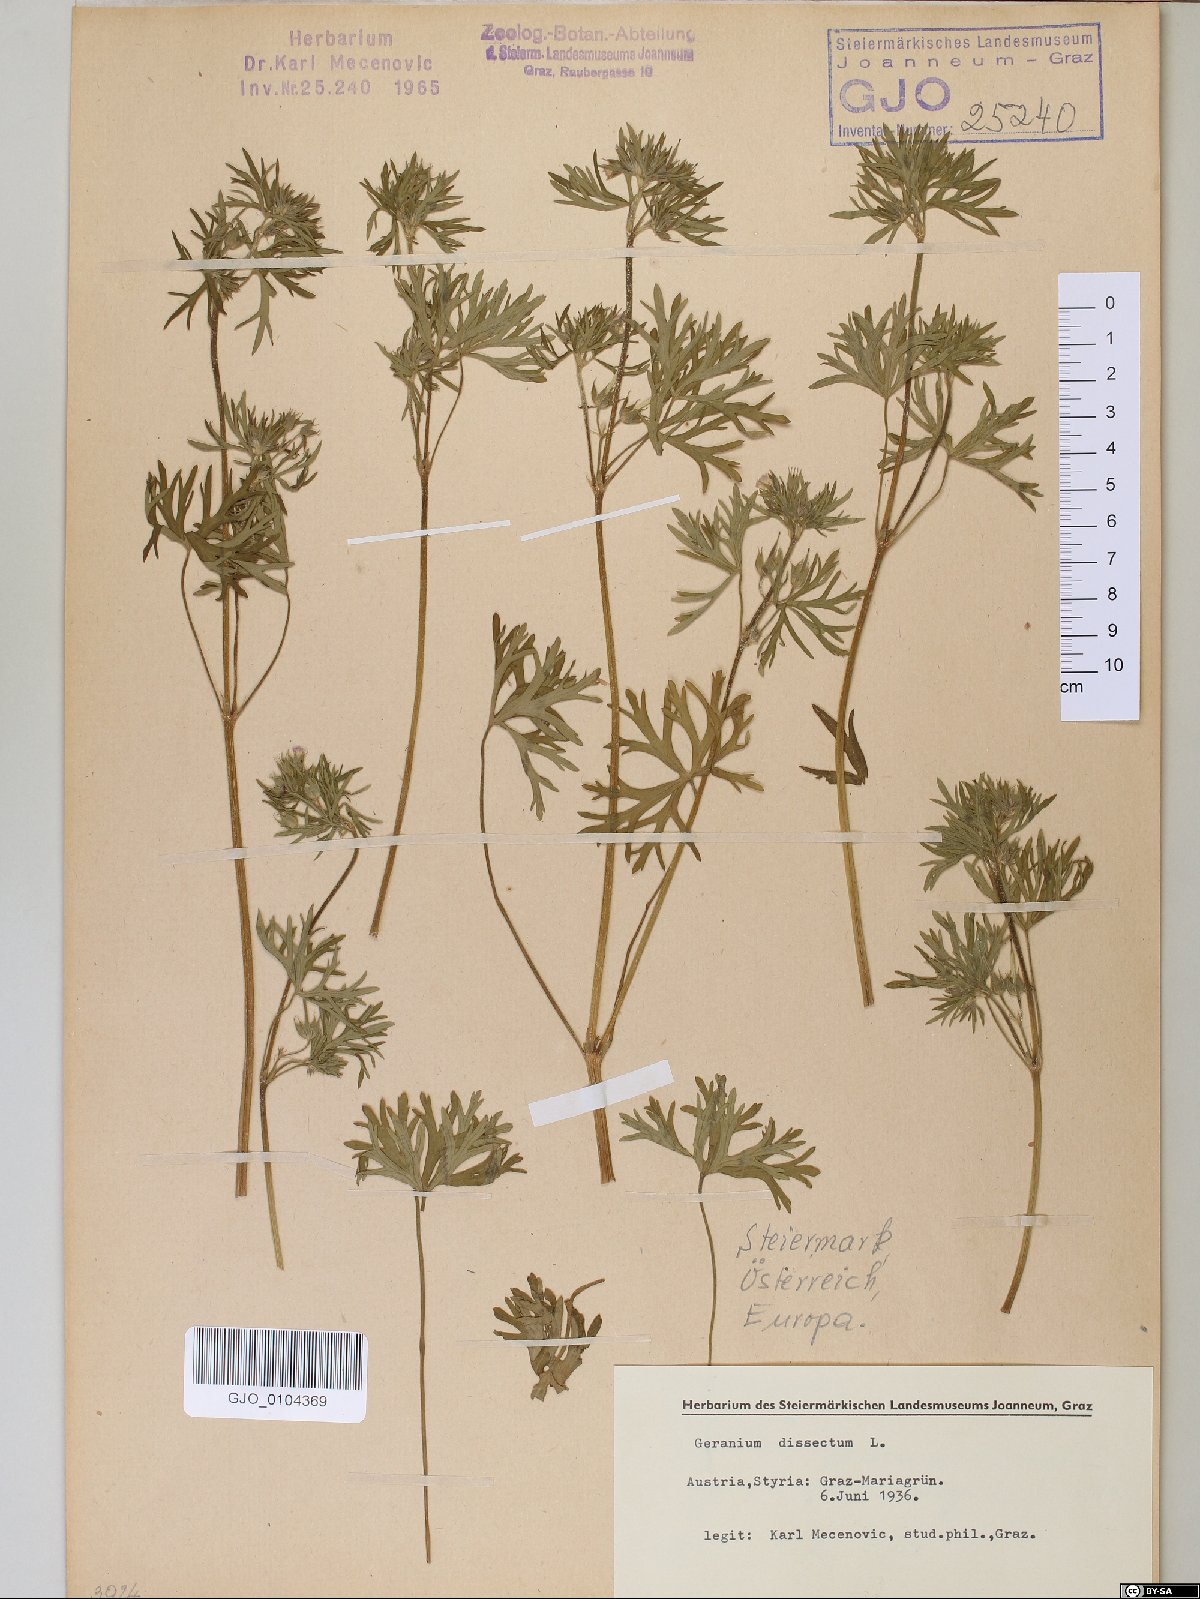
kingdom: Plantae
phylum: Tracheophyta
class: Magnoliopsida
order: Geraniales
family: Geraniaceae
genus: Geranium
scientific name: Geranium dissectum
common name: Cut-leaved crane's-bill
